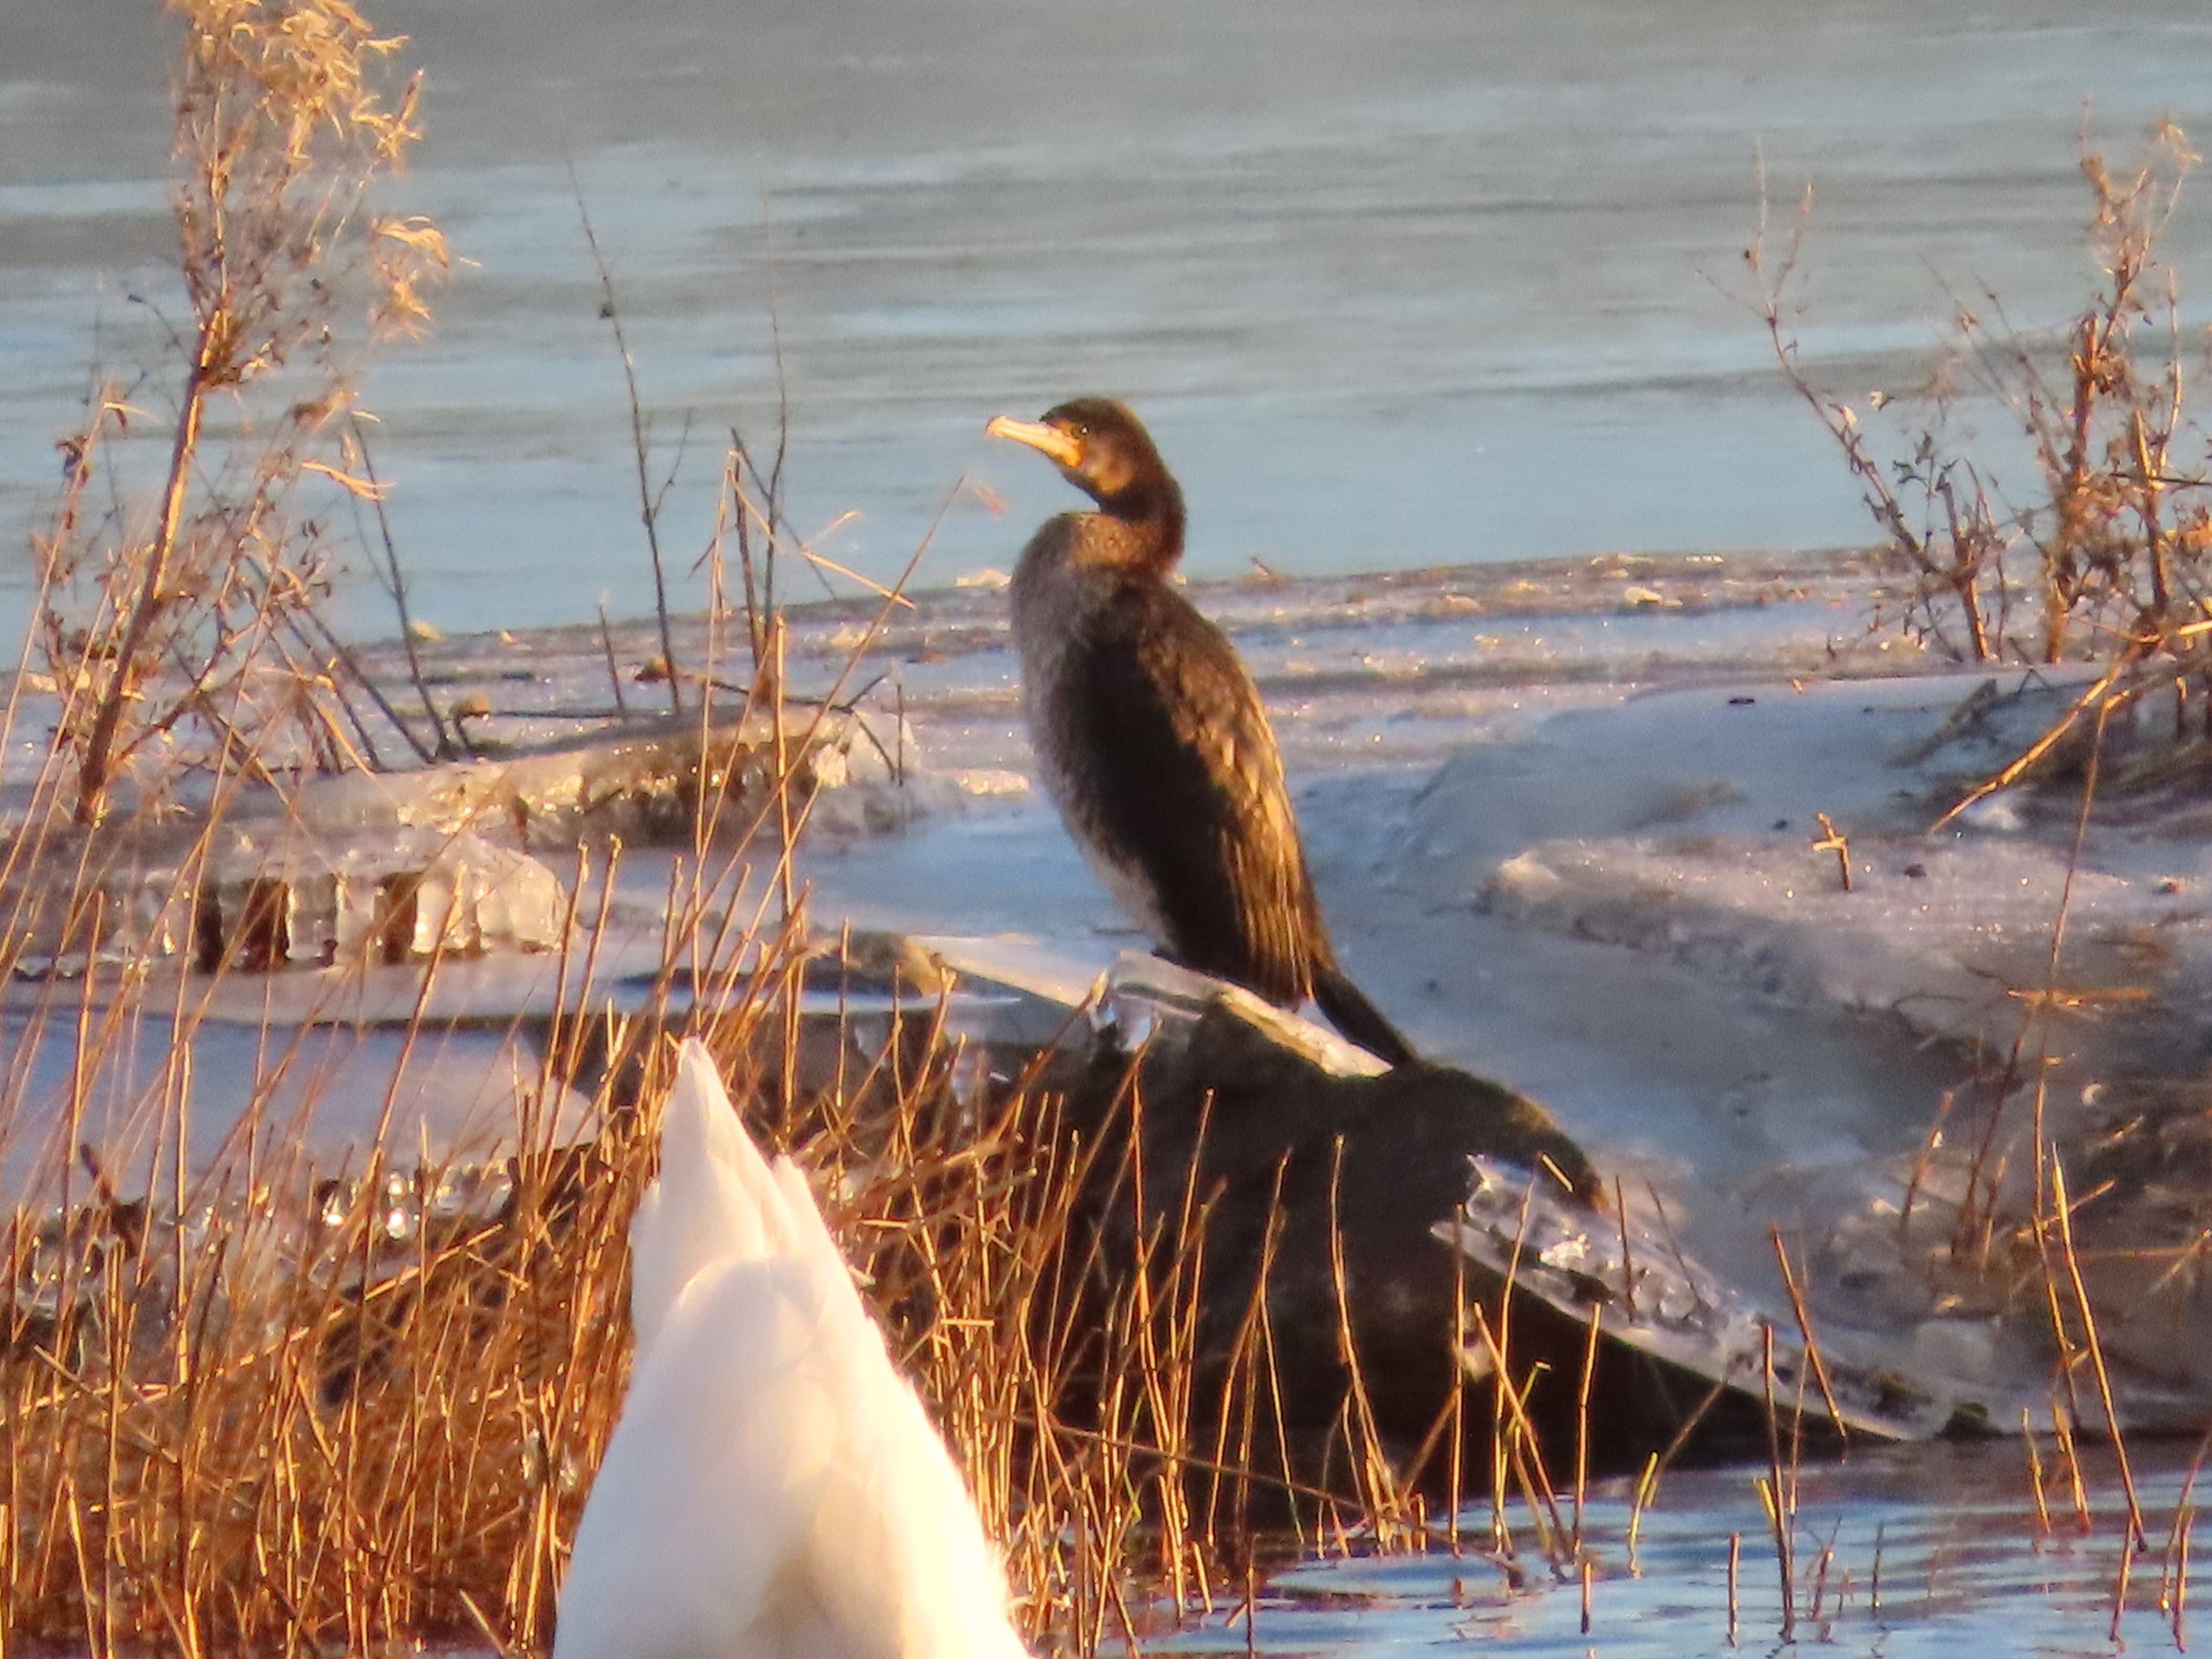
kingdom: Animalia
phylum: Chordata
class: Aves
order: Suliformes
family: Phalacrocoracidae
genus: Phalacrocorax
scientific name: Phalacrocorax carbo
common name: Skarv
